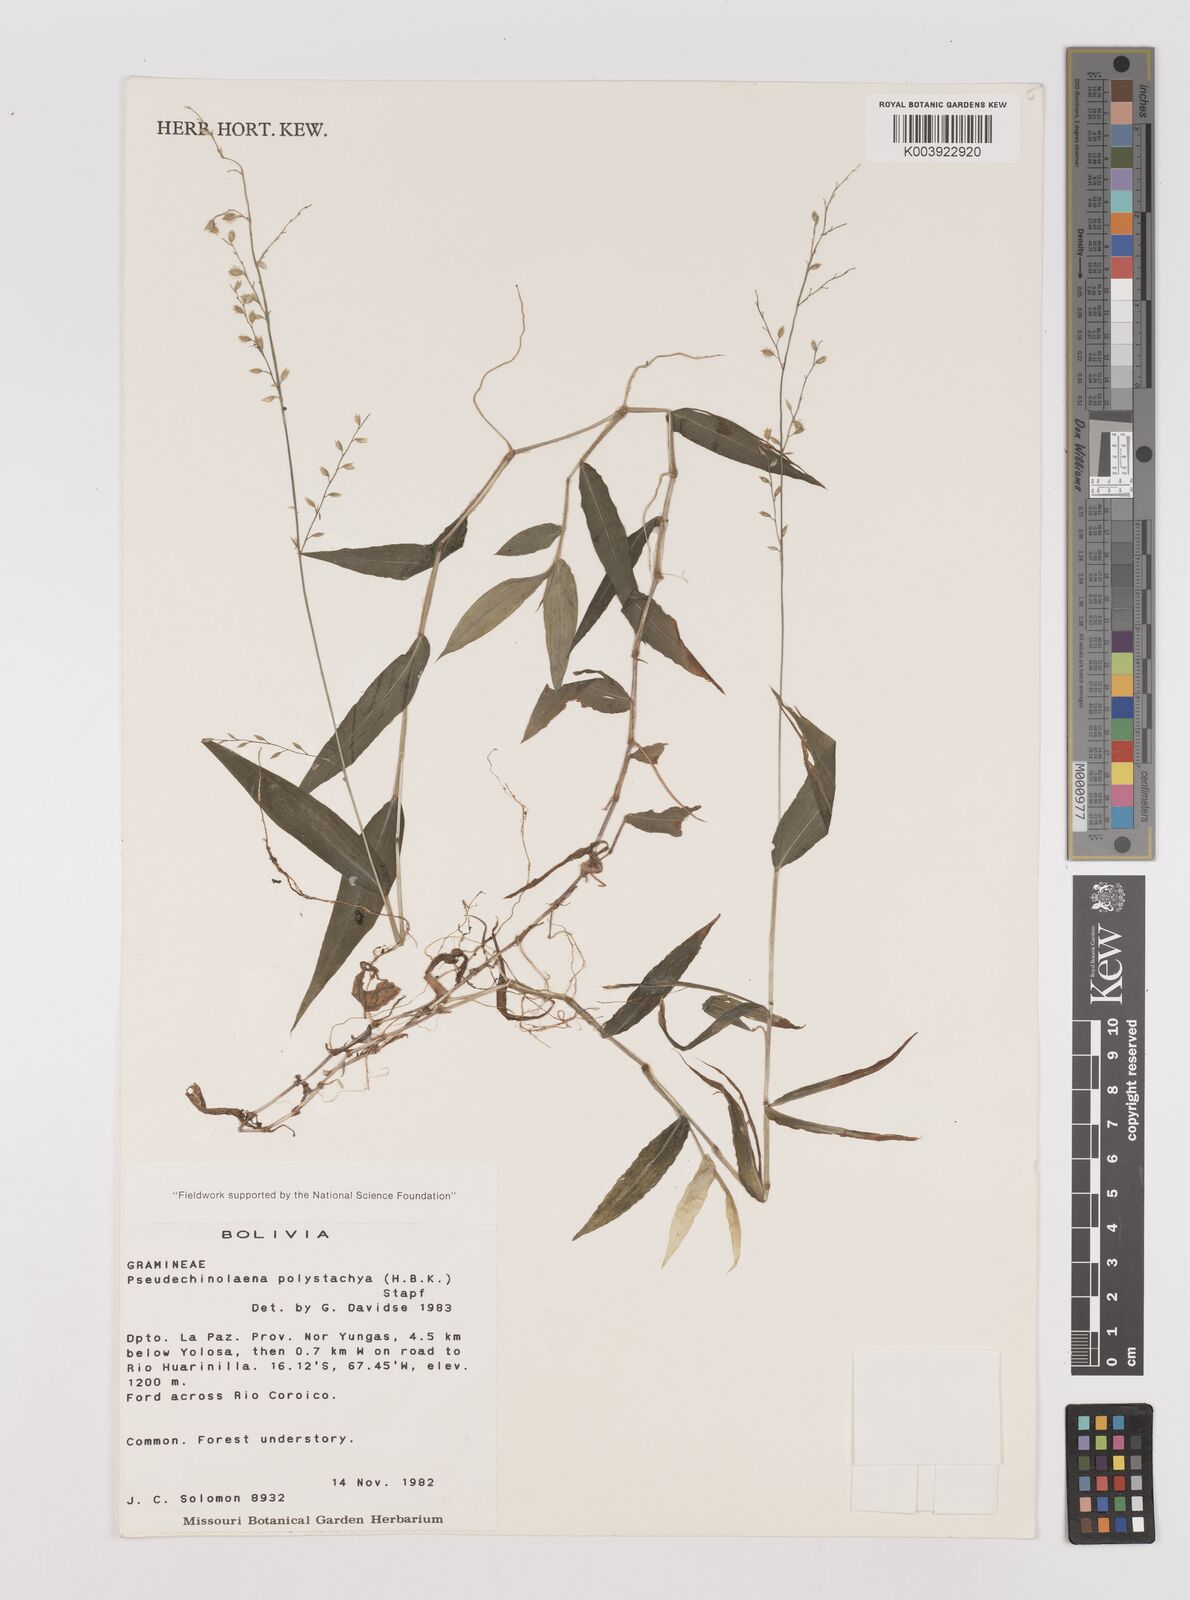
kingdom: Plantae
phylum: Tracheophyta
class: Liliopsida
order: Poales
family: Poaceae
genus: Pseudechinolaena
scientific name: Pseudechinolaena polystachya
